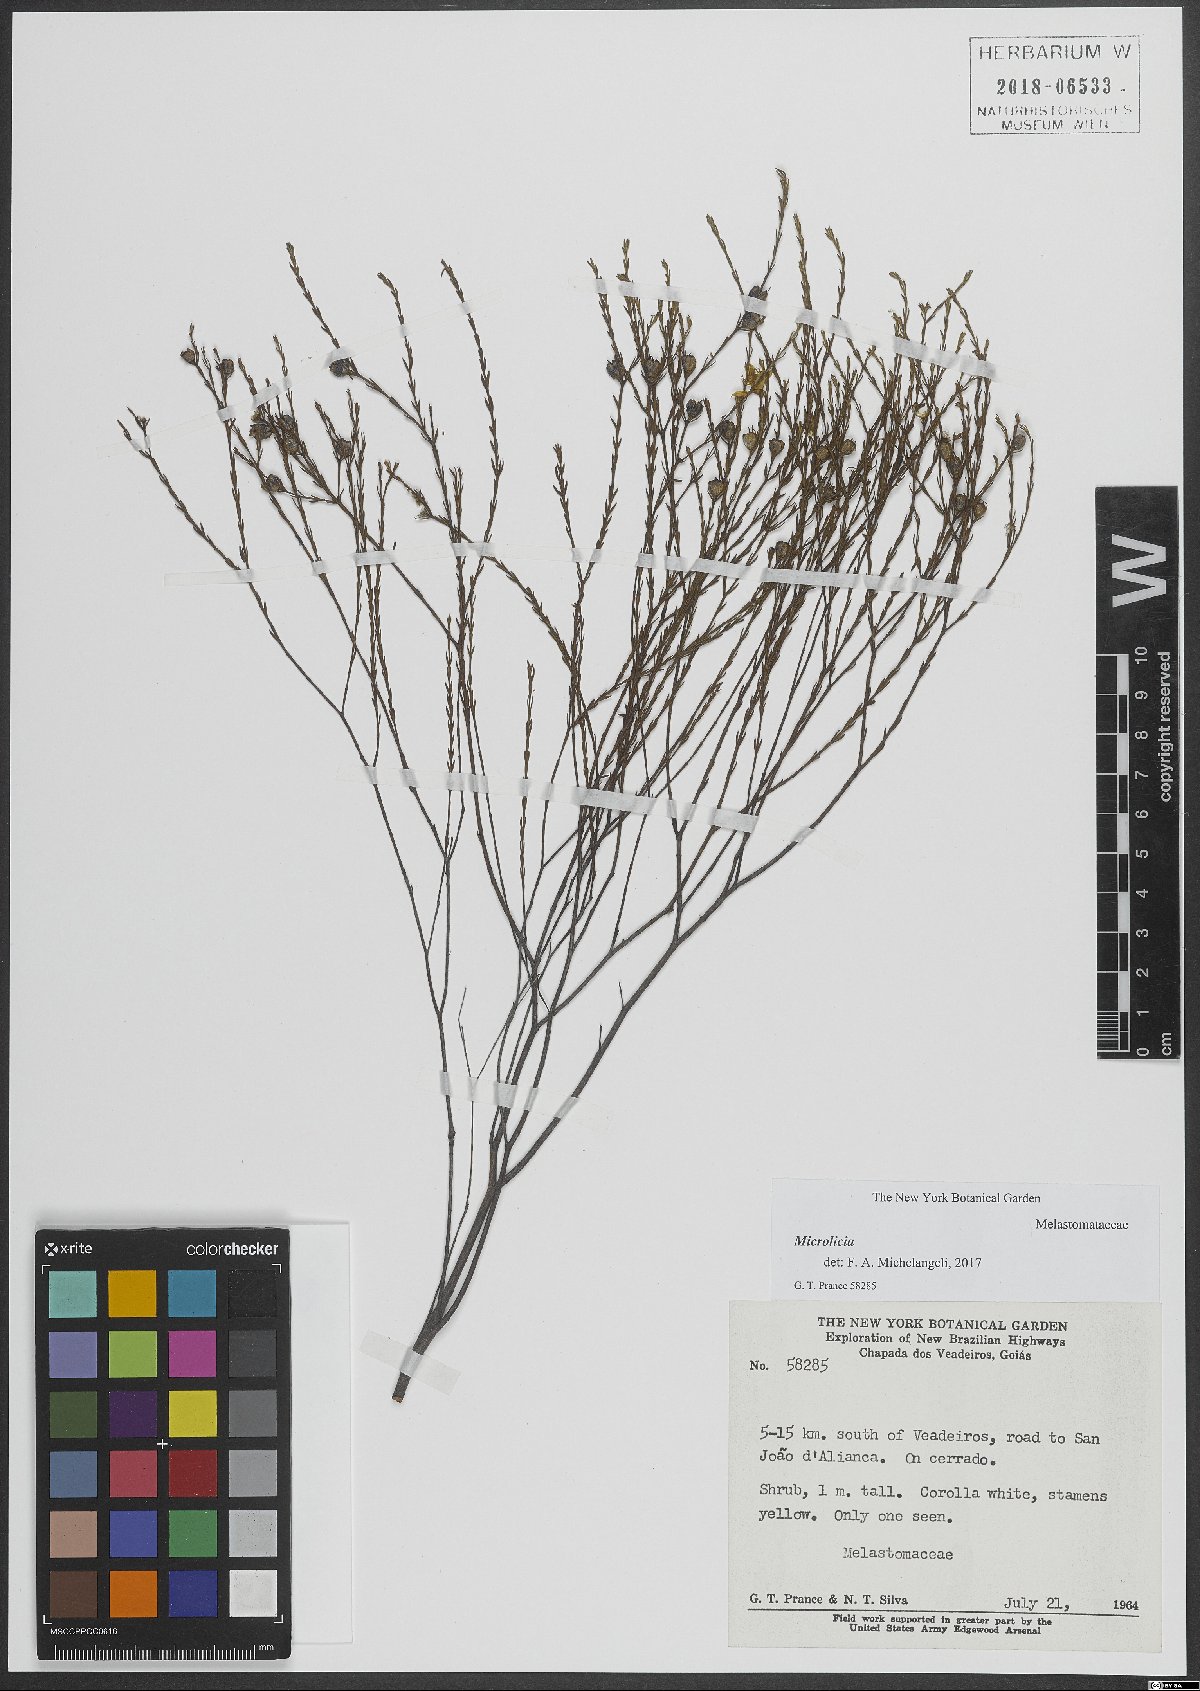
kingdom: Plantae
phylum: Tracheophyta
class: Magnoliopsida
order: Myrtales
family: Melastomataceae
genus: Microlicia
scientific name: Microlicia
